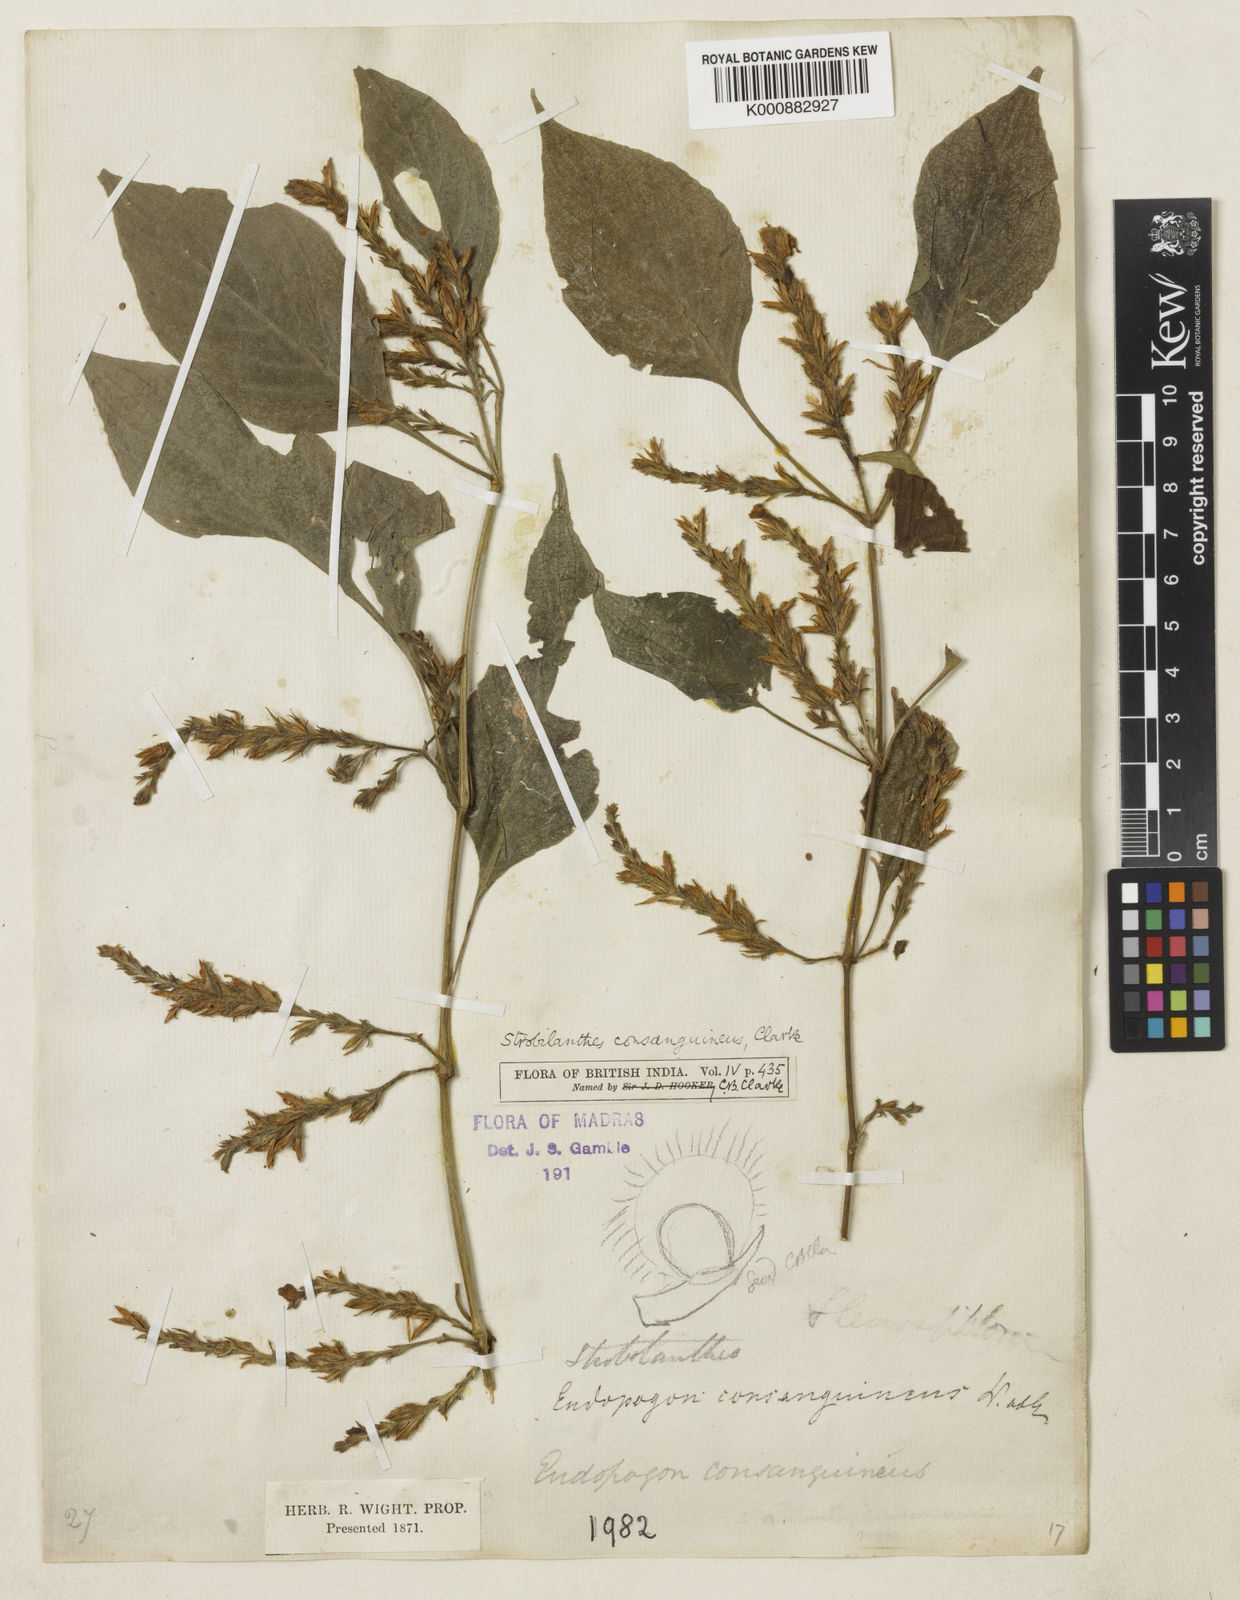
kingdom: Plantae
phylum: Tracheophyta
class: Magnoliopsida
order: Lamiales
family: Acanthaceae
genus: Strobilanthes
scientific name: Strobilanthes diandra
